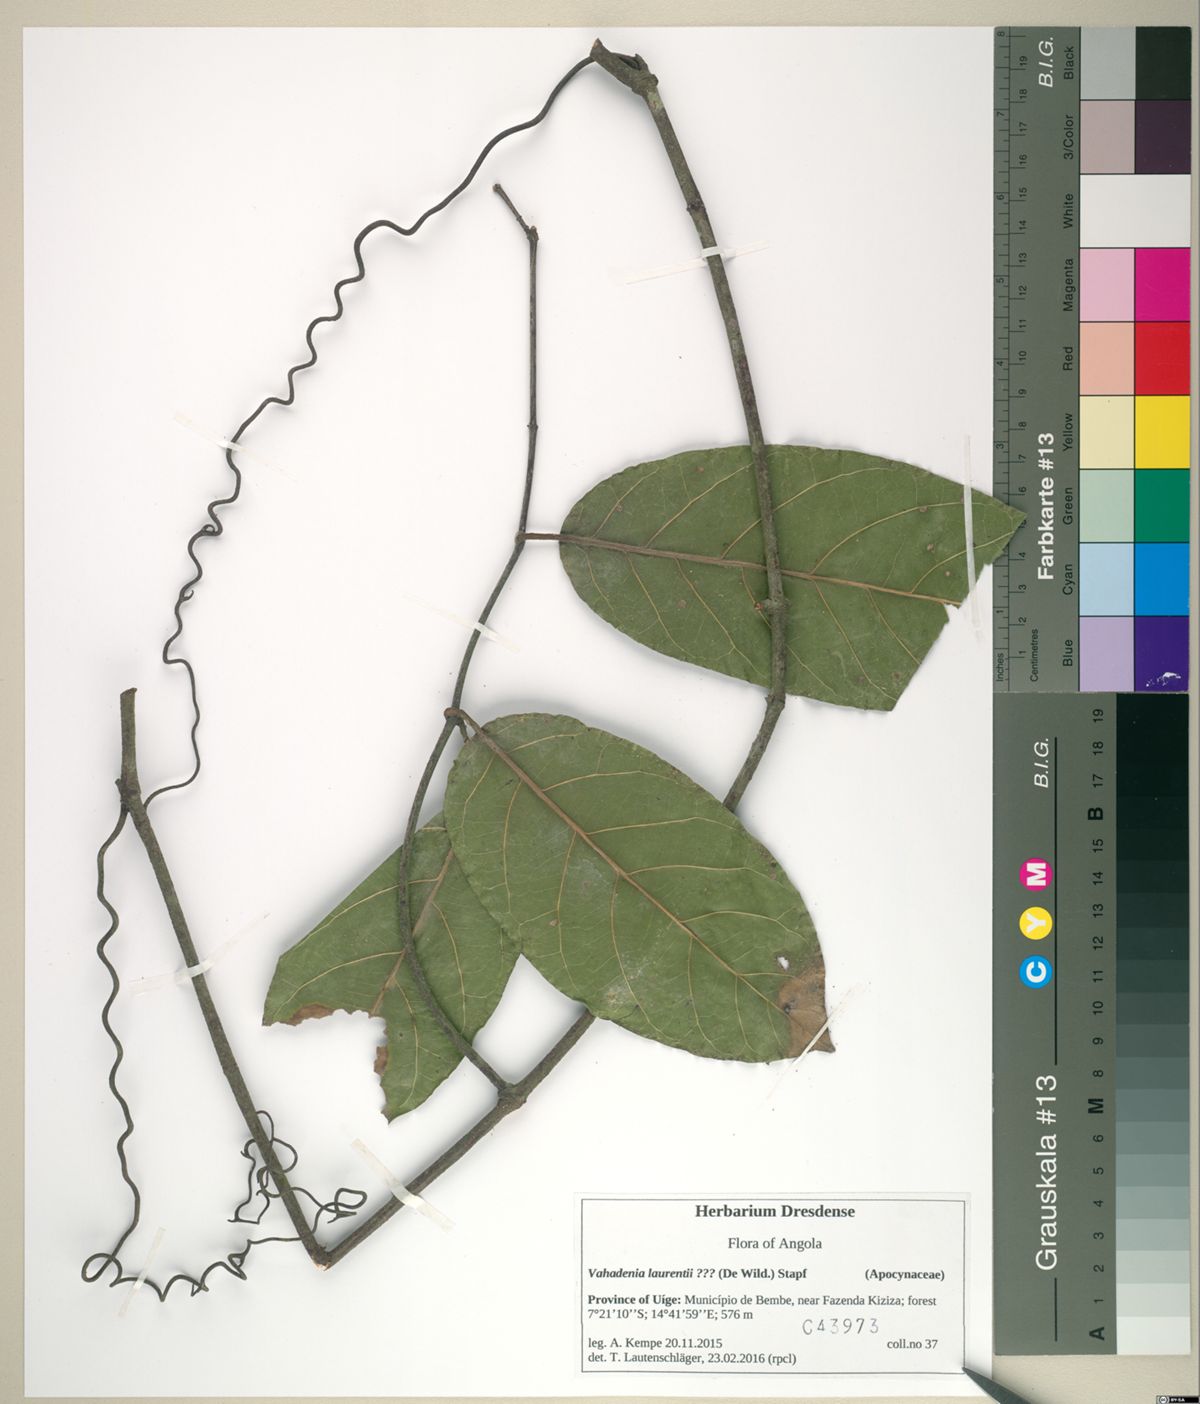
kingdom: Plantae
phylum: Tracheophyta
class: Magnoliopsida
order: Gentianales
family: Apocynaceae
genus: Vahadenia
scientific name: Vahadenia laurentii
